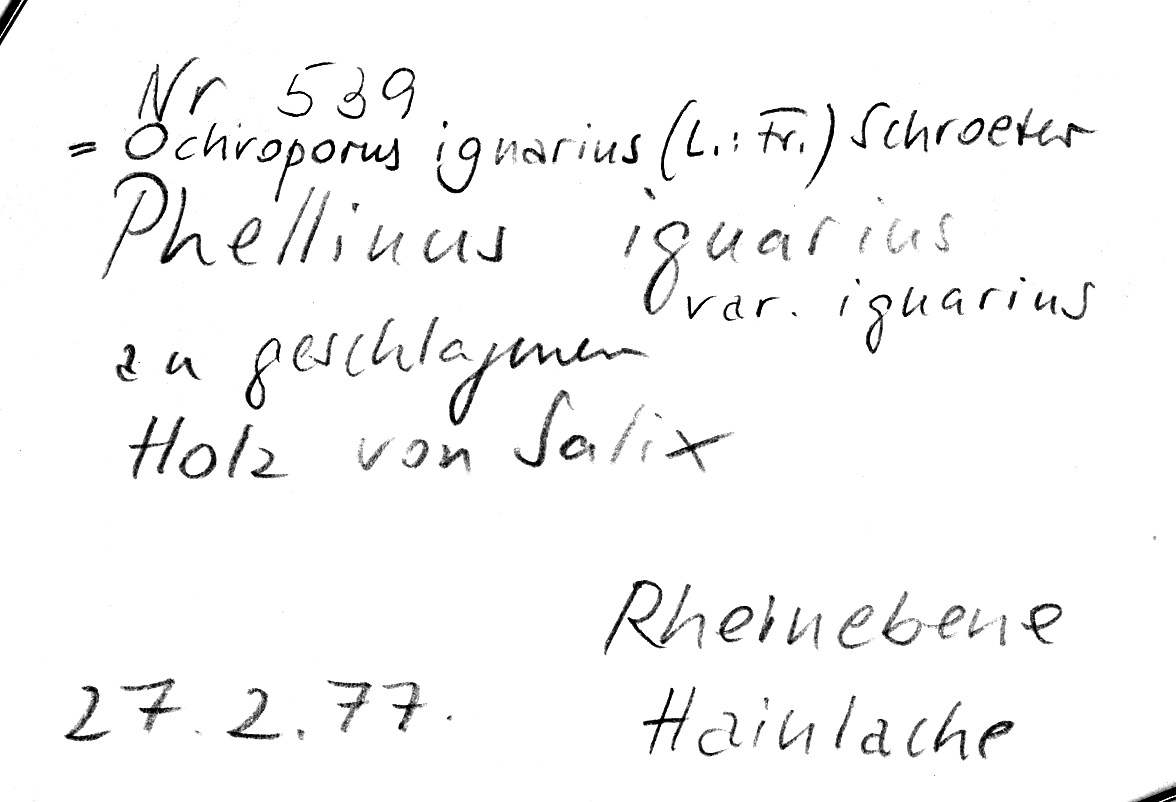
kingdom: Fungi
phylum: Basidiomycota
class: Agaricomycetes
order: Hymenochaetales
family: Hymenochaetaceae
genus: Phellinus
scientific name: Phellinus igniarius
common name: Willow bracket
